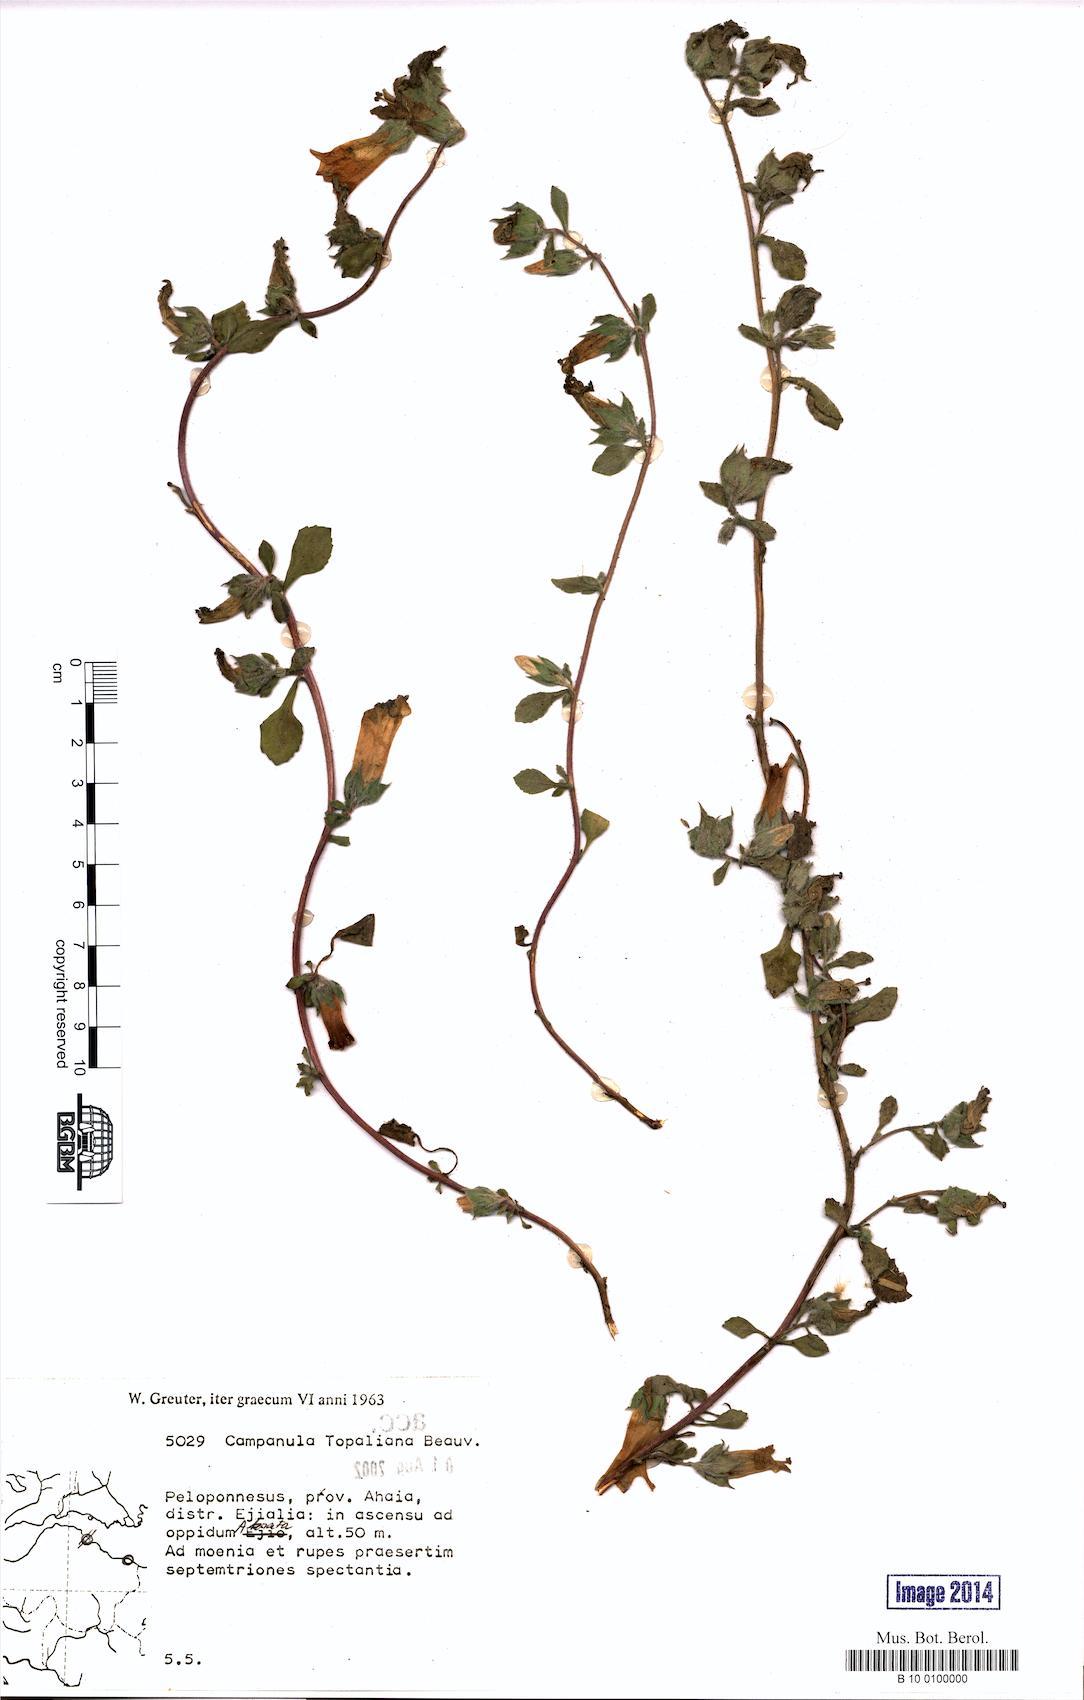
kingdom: Plantae
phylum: Tracheophyta
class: Magnoliopsida
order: Asterales
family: Campanulaceae
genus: Campanula
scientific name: Campanula topaliana
